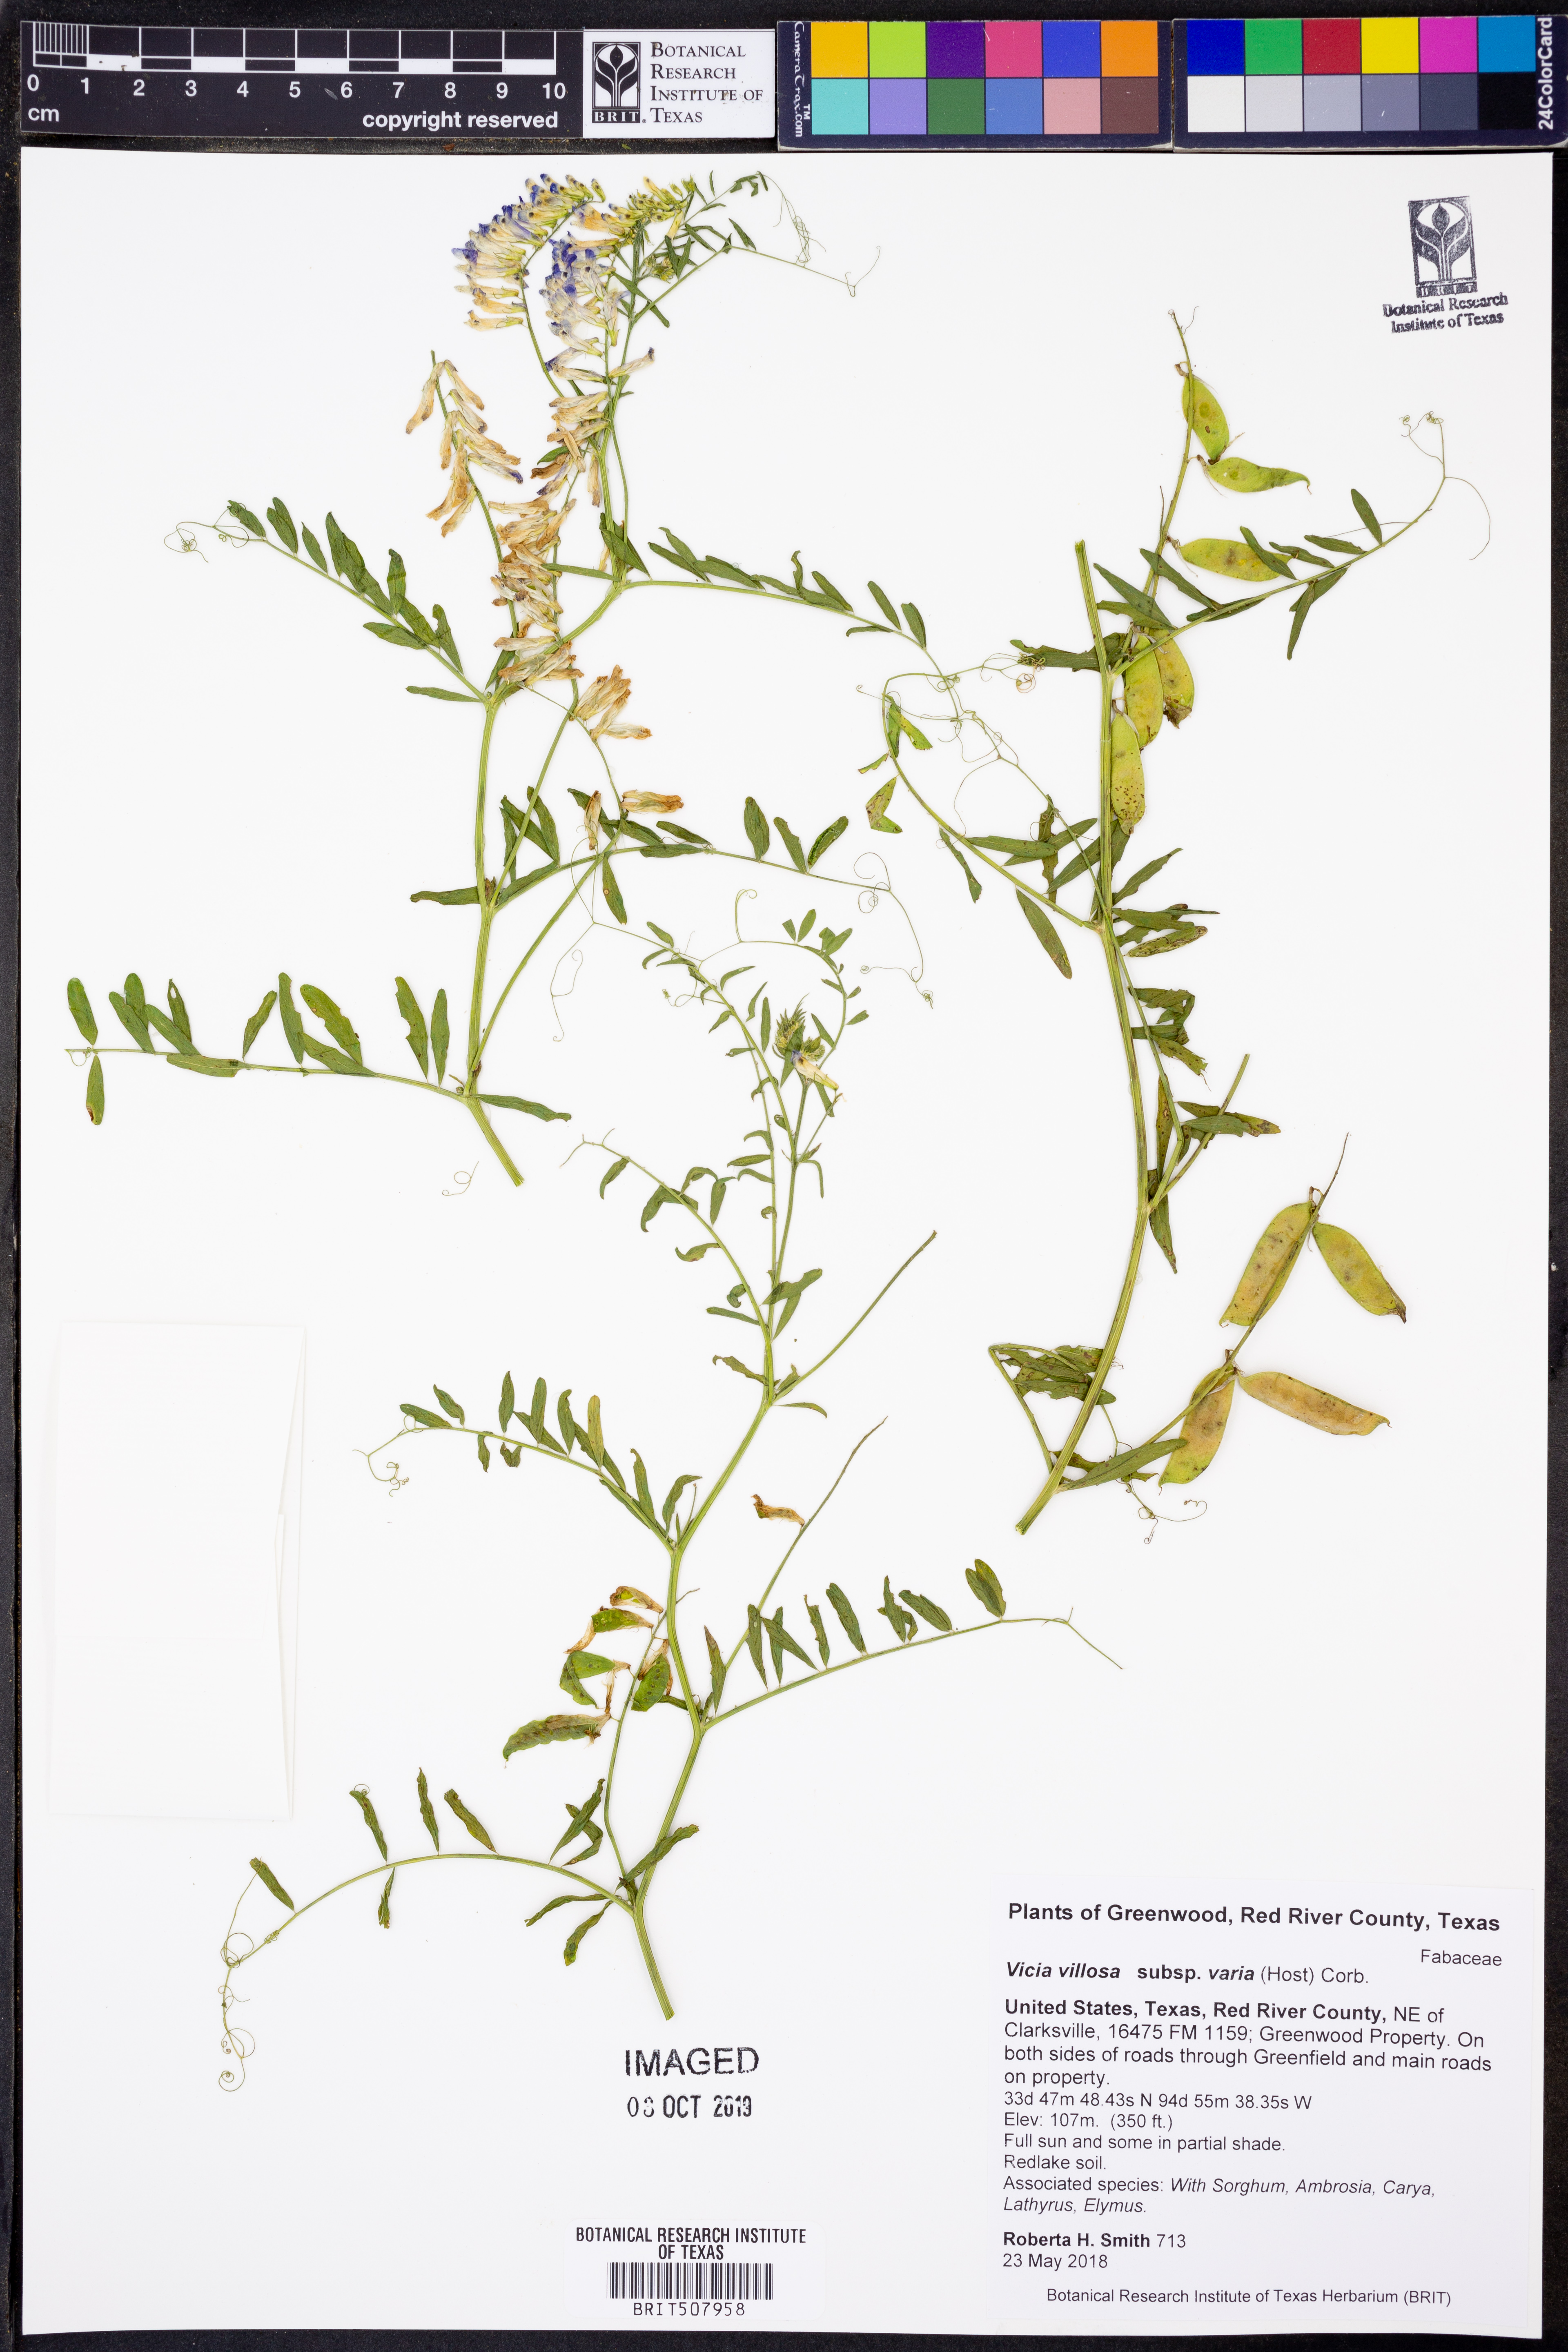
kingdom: Plantae
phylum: Tracheophyta
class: Magnoliopsida
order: Fabales
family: Fabaceae
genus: Vicia
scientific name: Vicia villosa
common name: Fodder vetch
